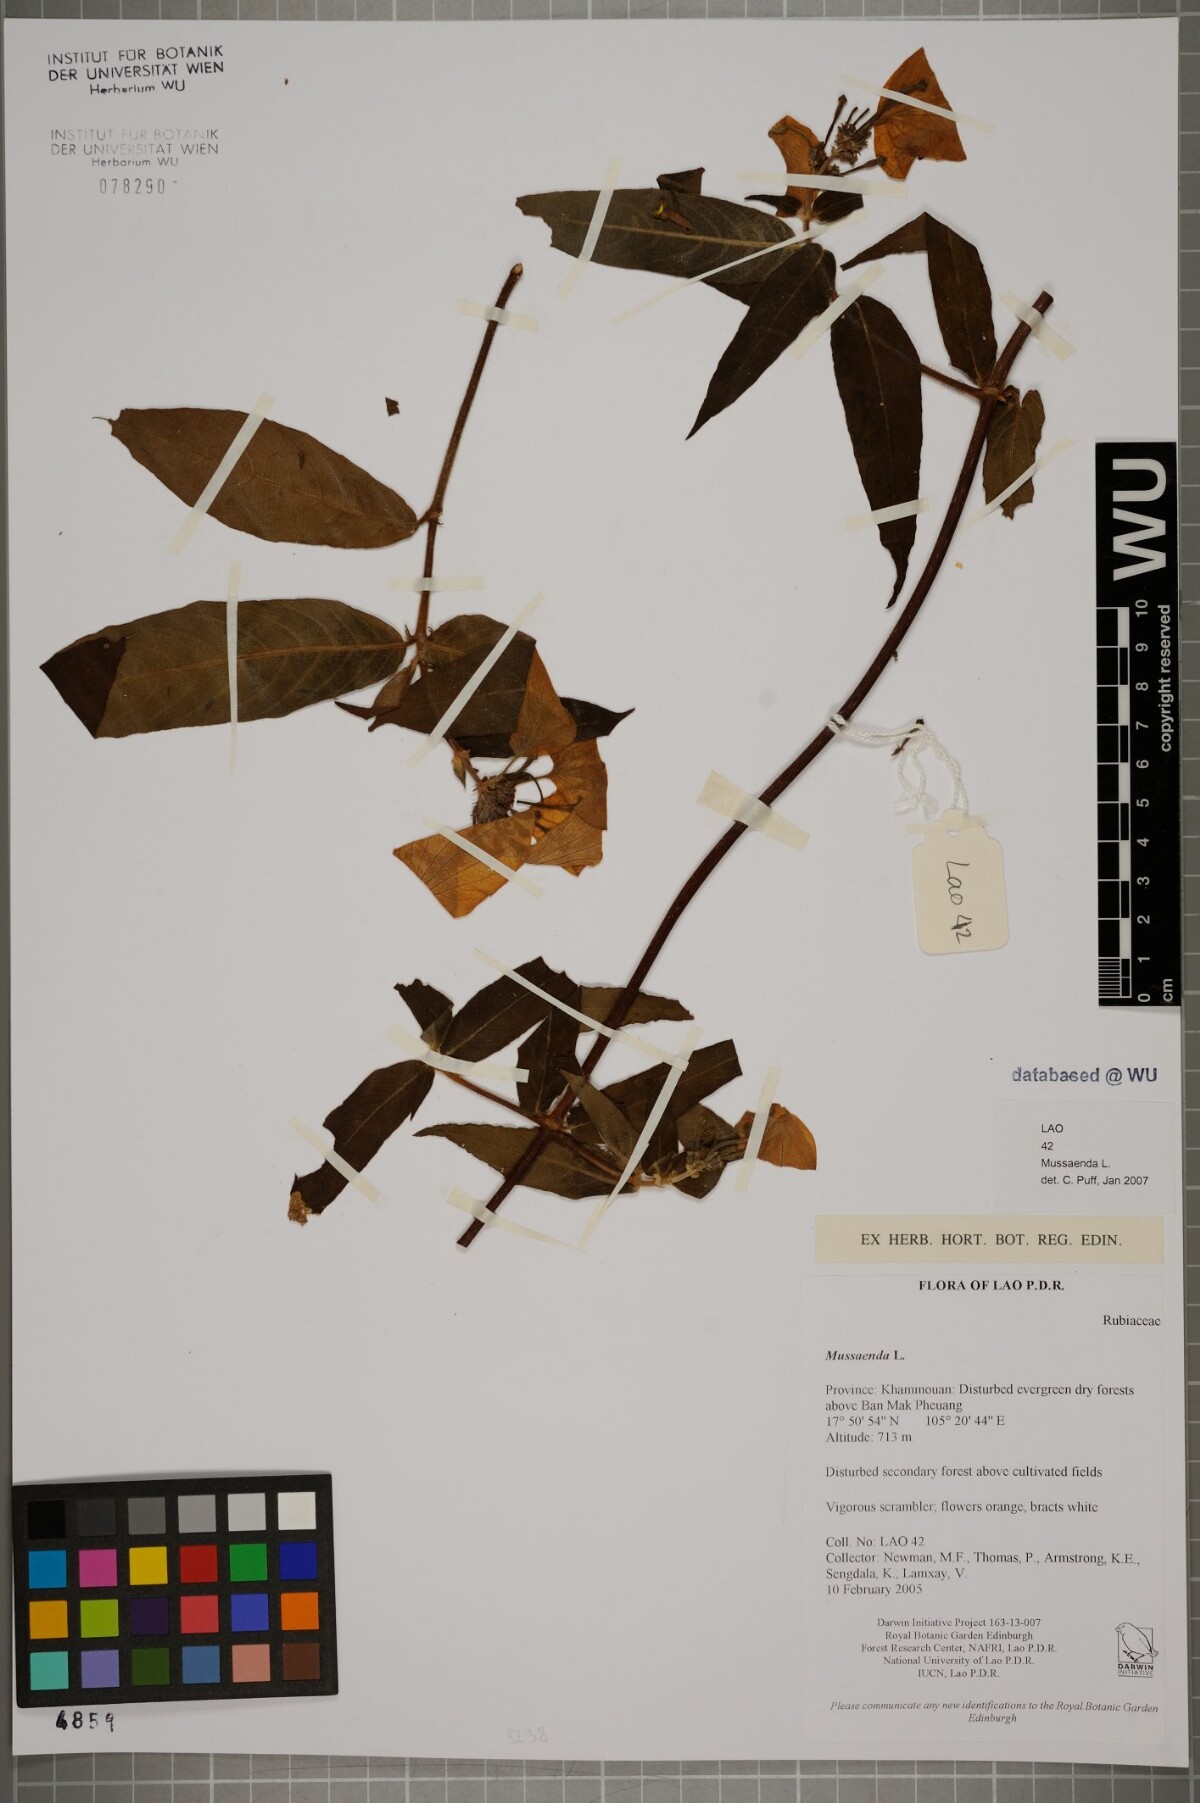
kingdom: Plantae
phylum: Tracheophyta
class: Magnoliopsida
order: Gentianales
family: Rubiaceae
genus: Mussaenda
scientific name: Mussaenda
